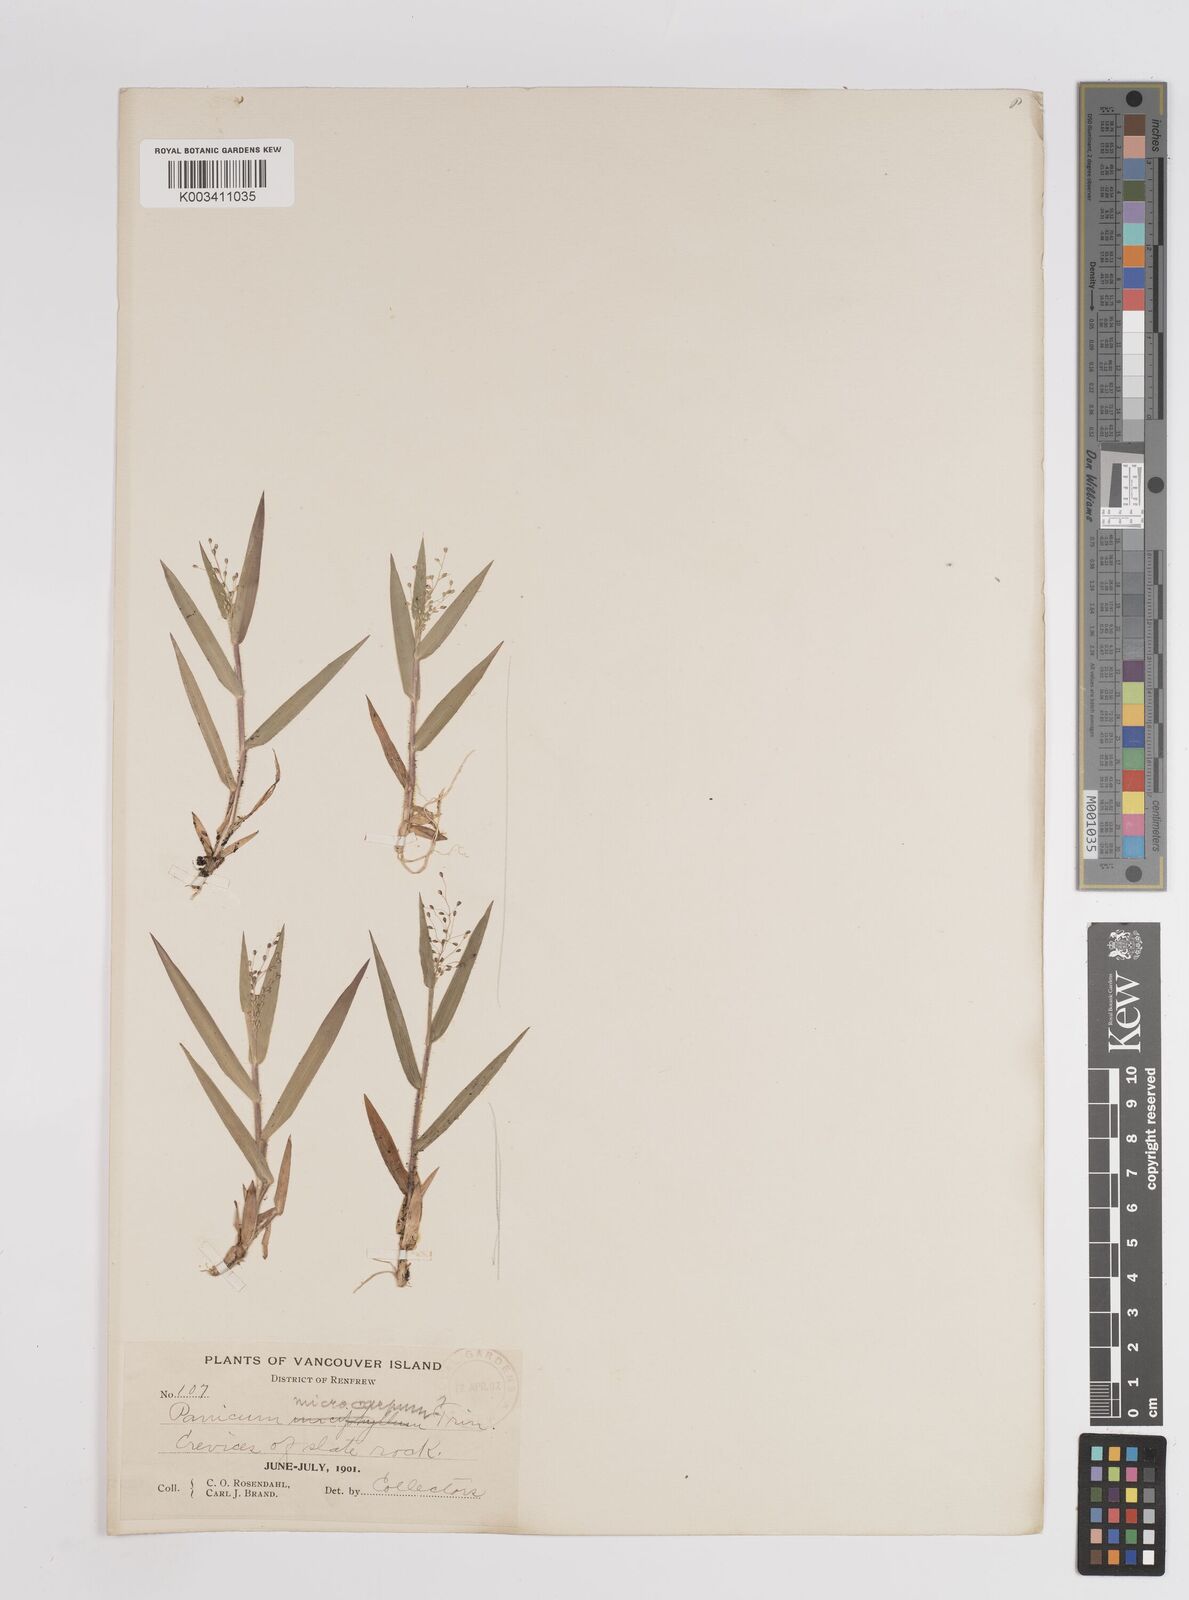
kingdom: Plantae
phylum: Tracheophyta
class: Liliopsida
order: Poales
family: Poaceae
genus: Setaria
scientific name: Setaria tenax
